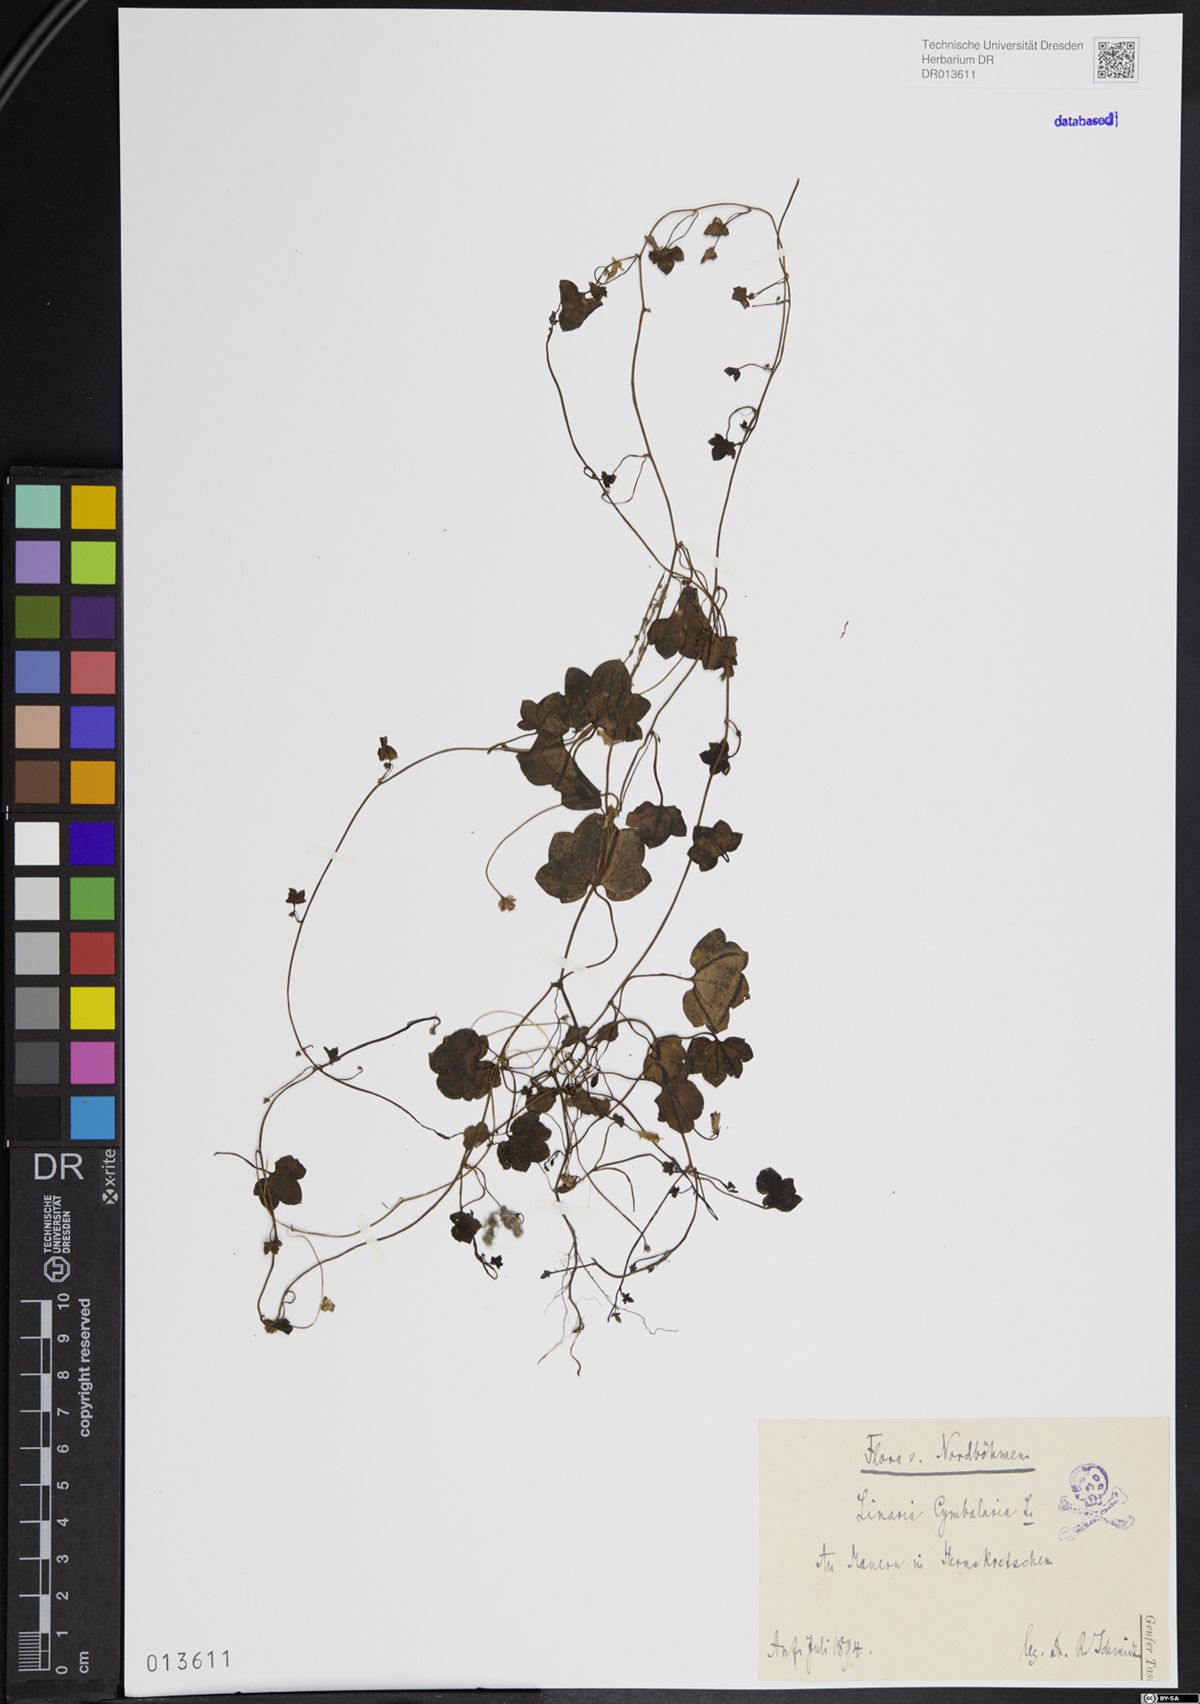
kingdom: Plantae
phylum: Tracheophyta
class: Magnoliopsida
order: Lamiales
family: Plantaginaceae
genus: Cymbalaria
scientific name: Cymbalaria muralis
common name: Ivy-leaved toadflax
